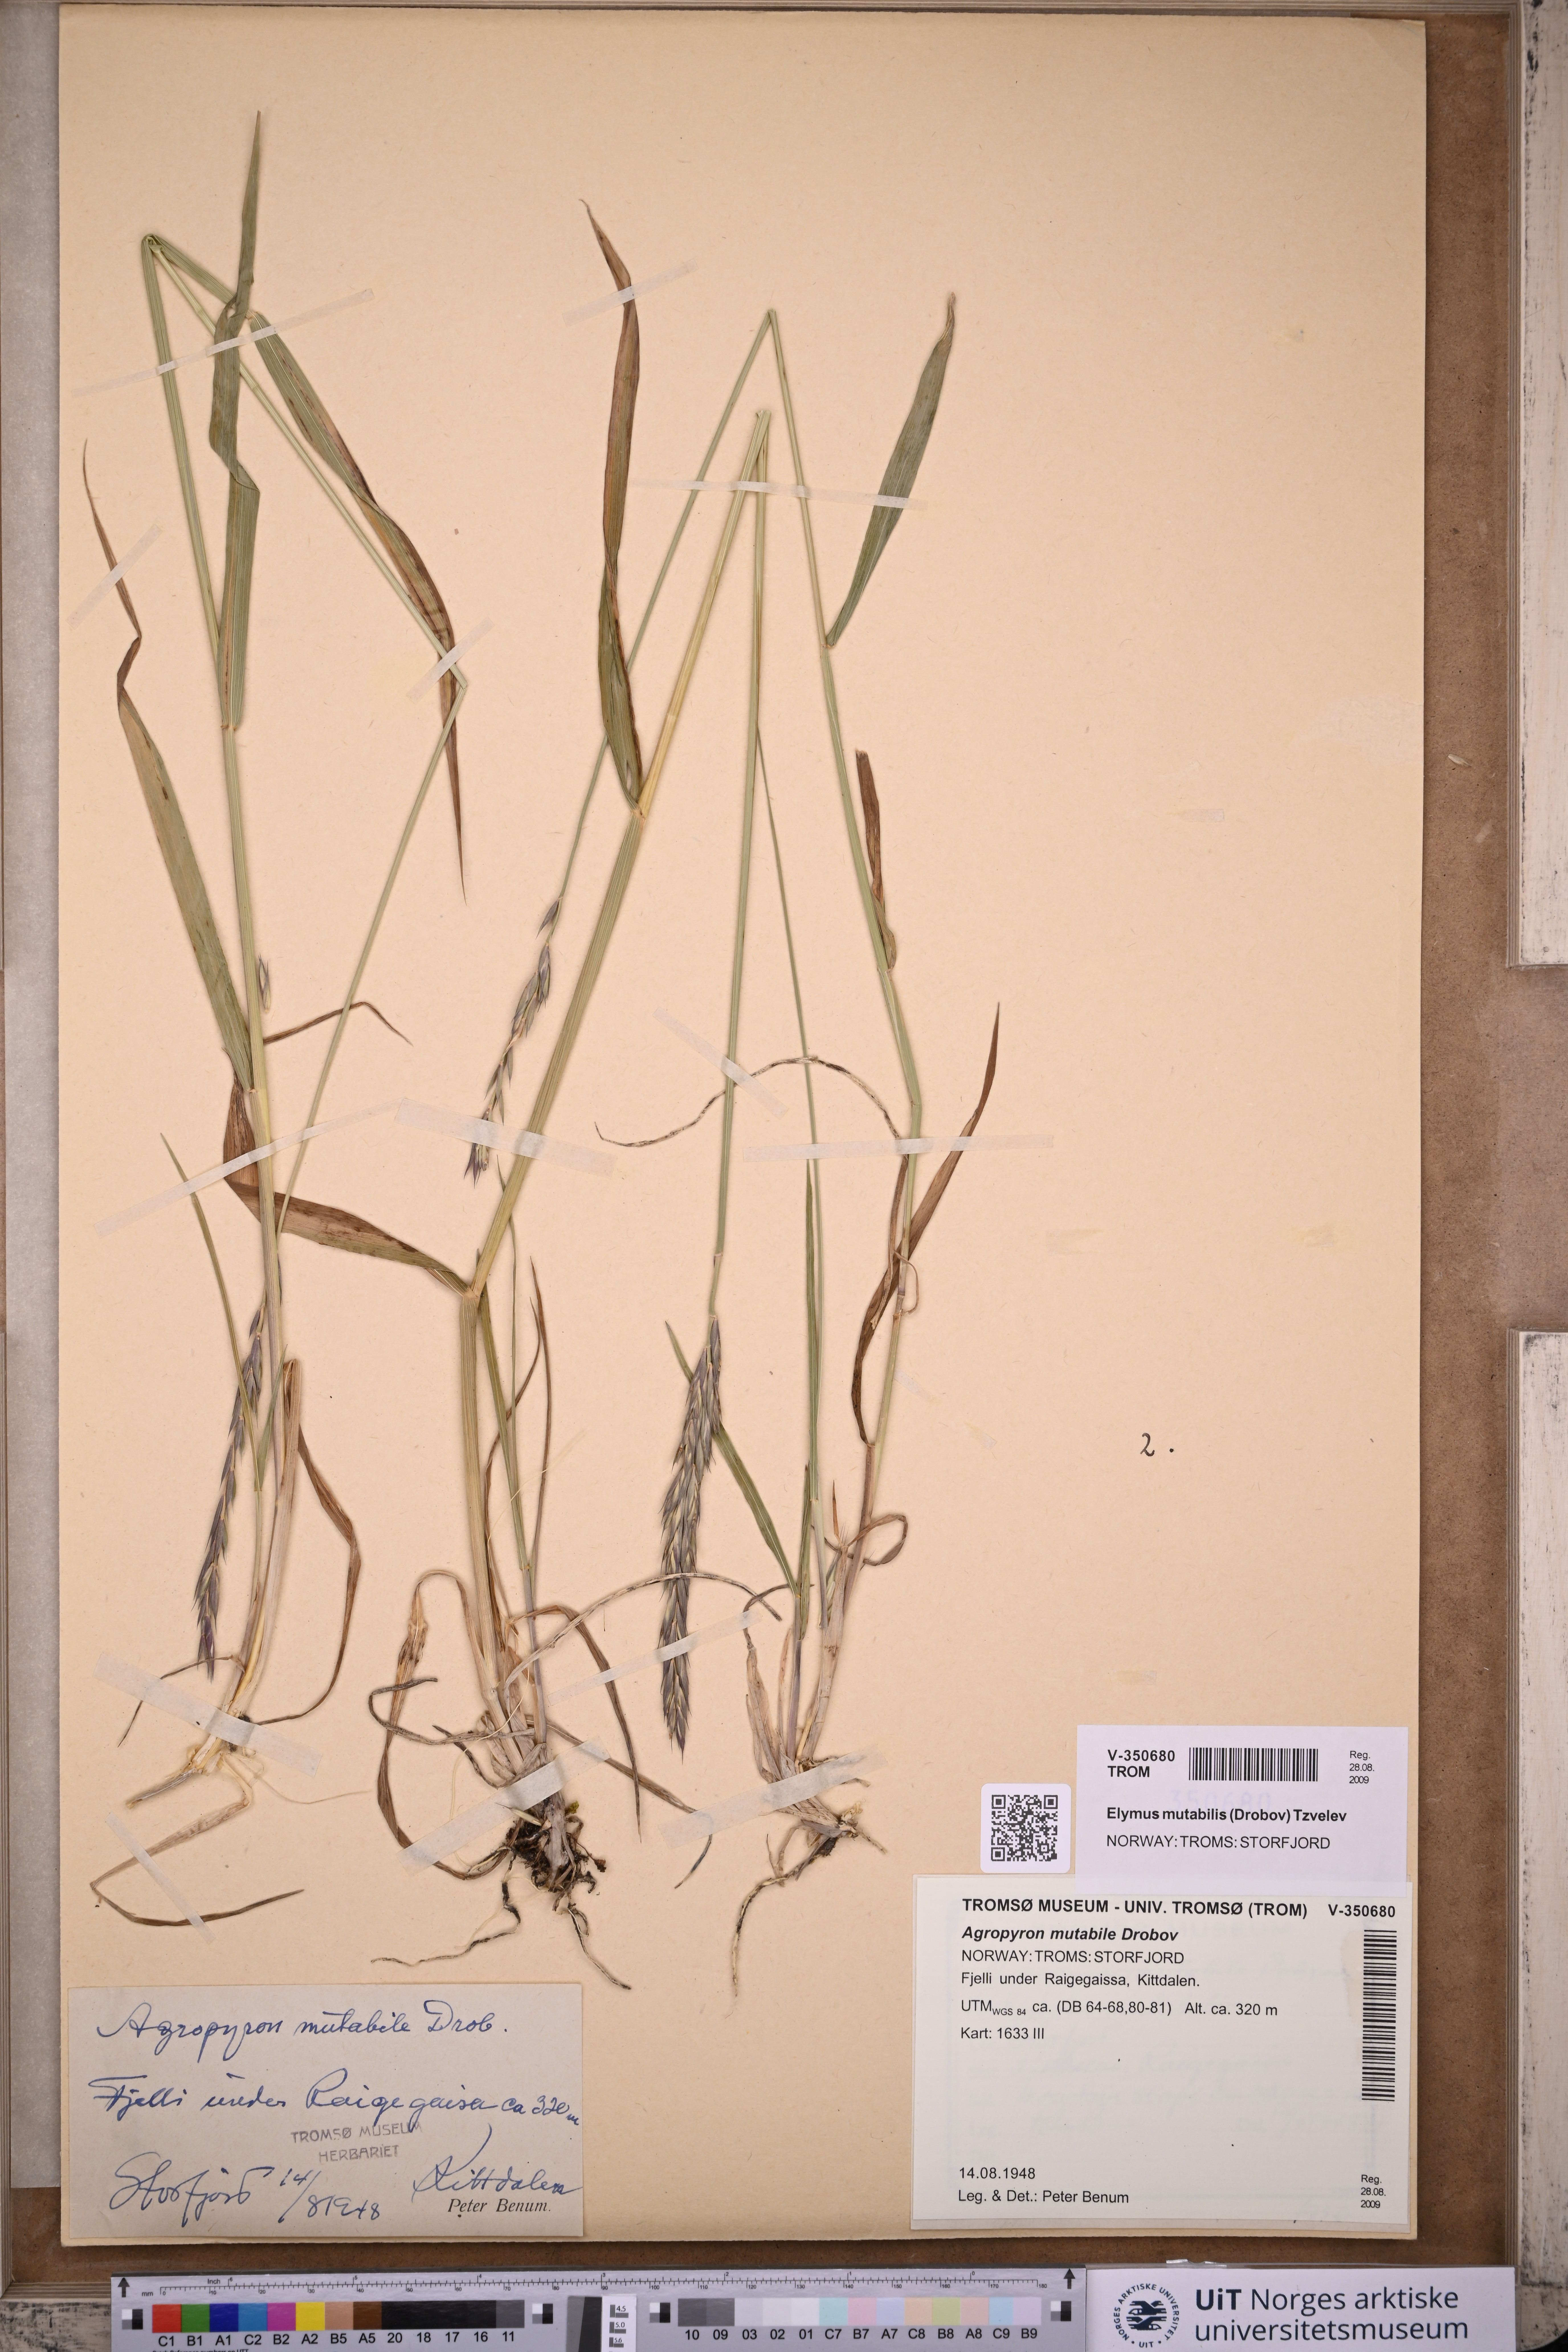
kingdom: Plantae
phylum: Tracheophyta
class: Liliopsida
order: Poales
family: Poaceae
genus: Elymus
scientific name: Elymus mutabilis
